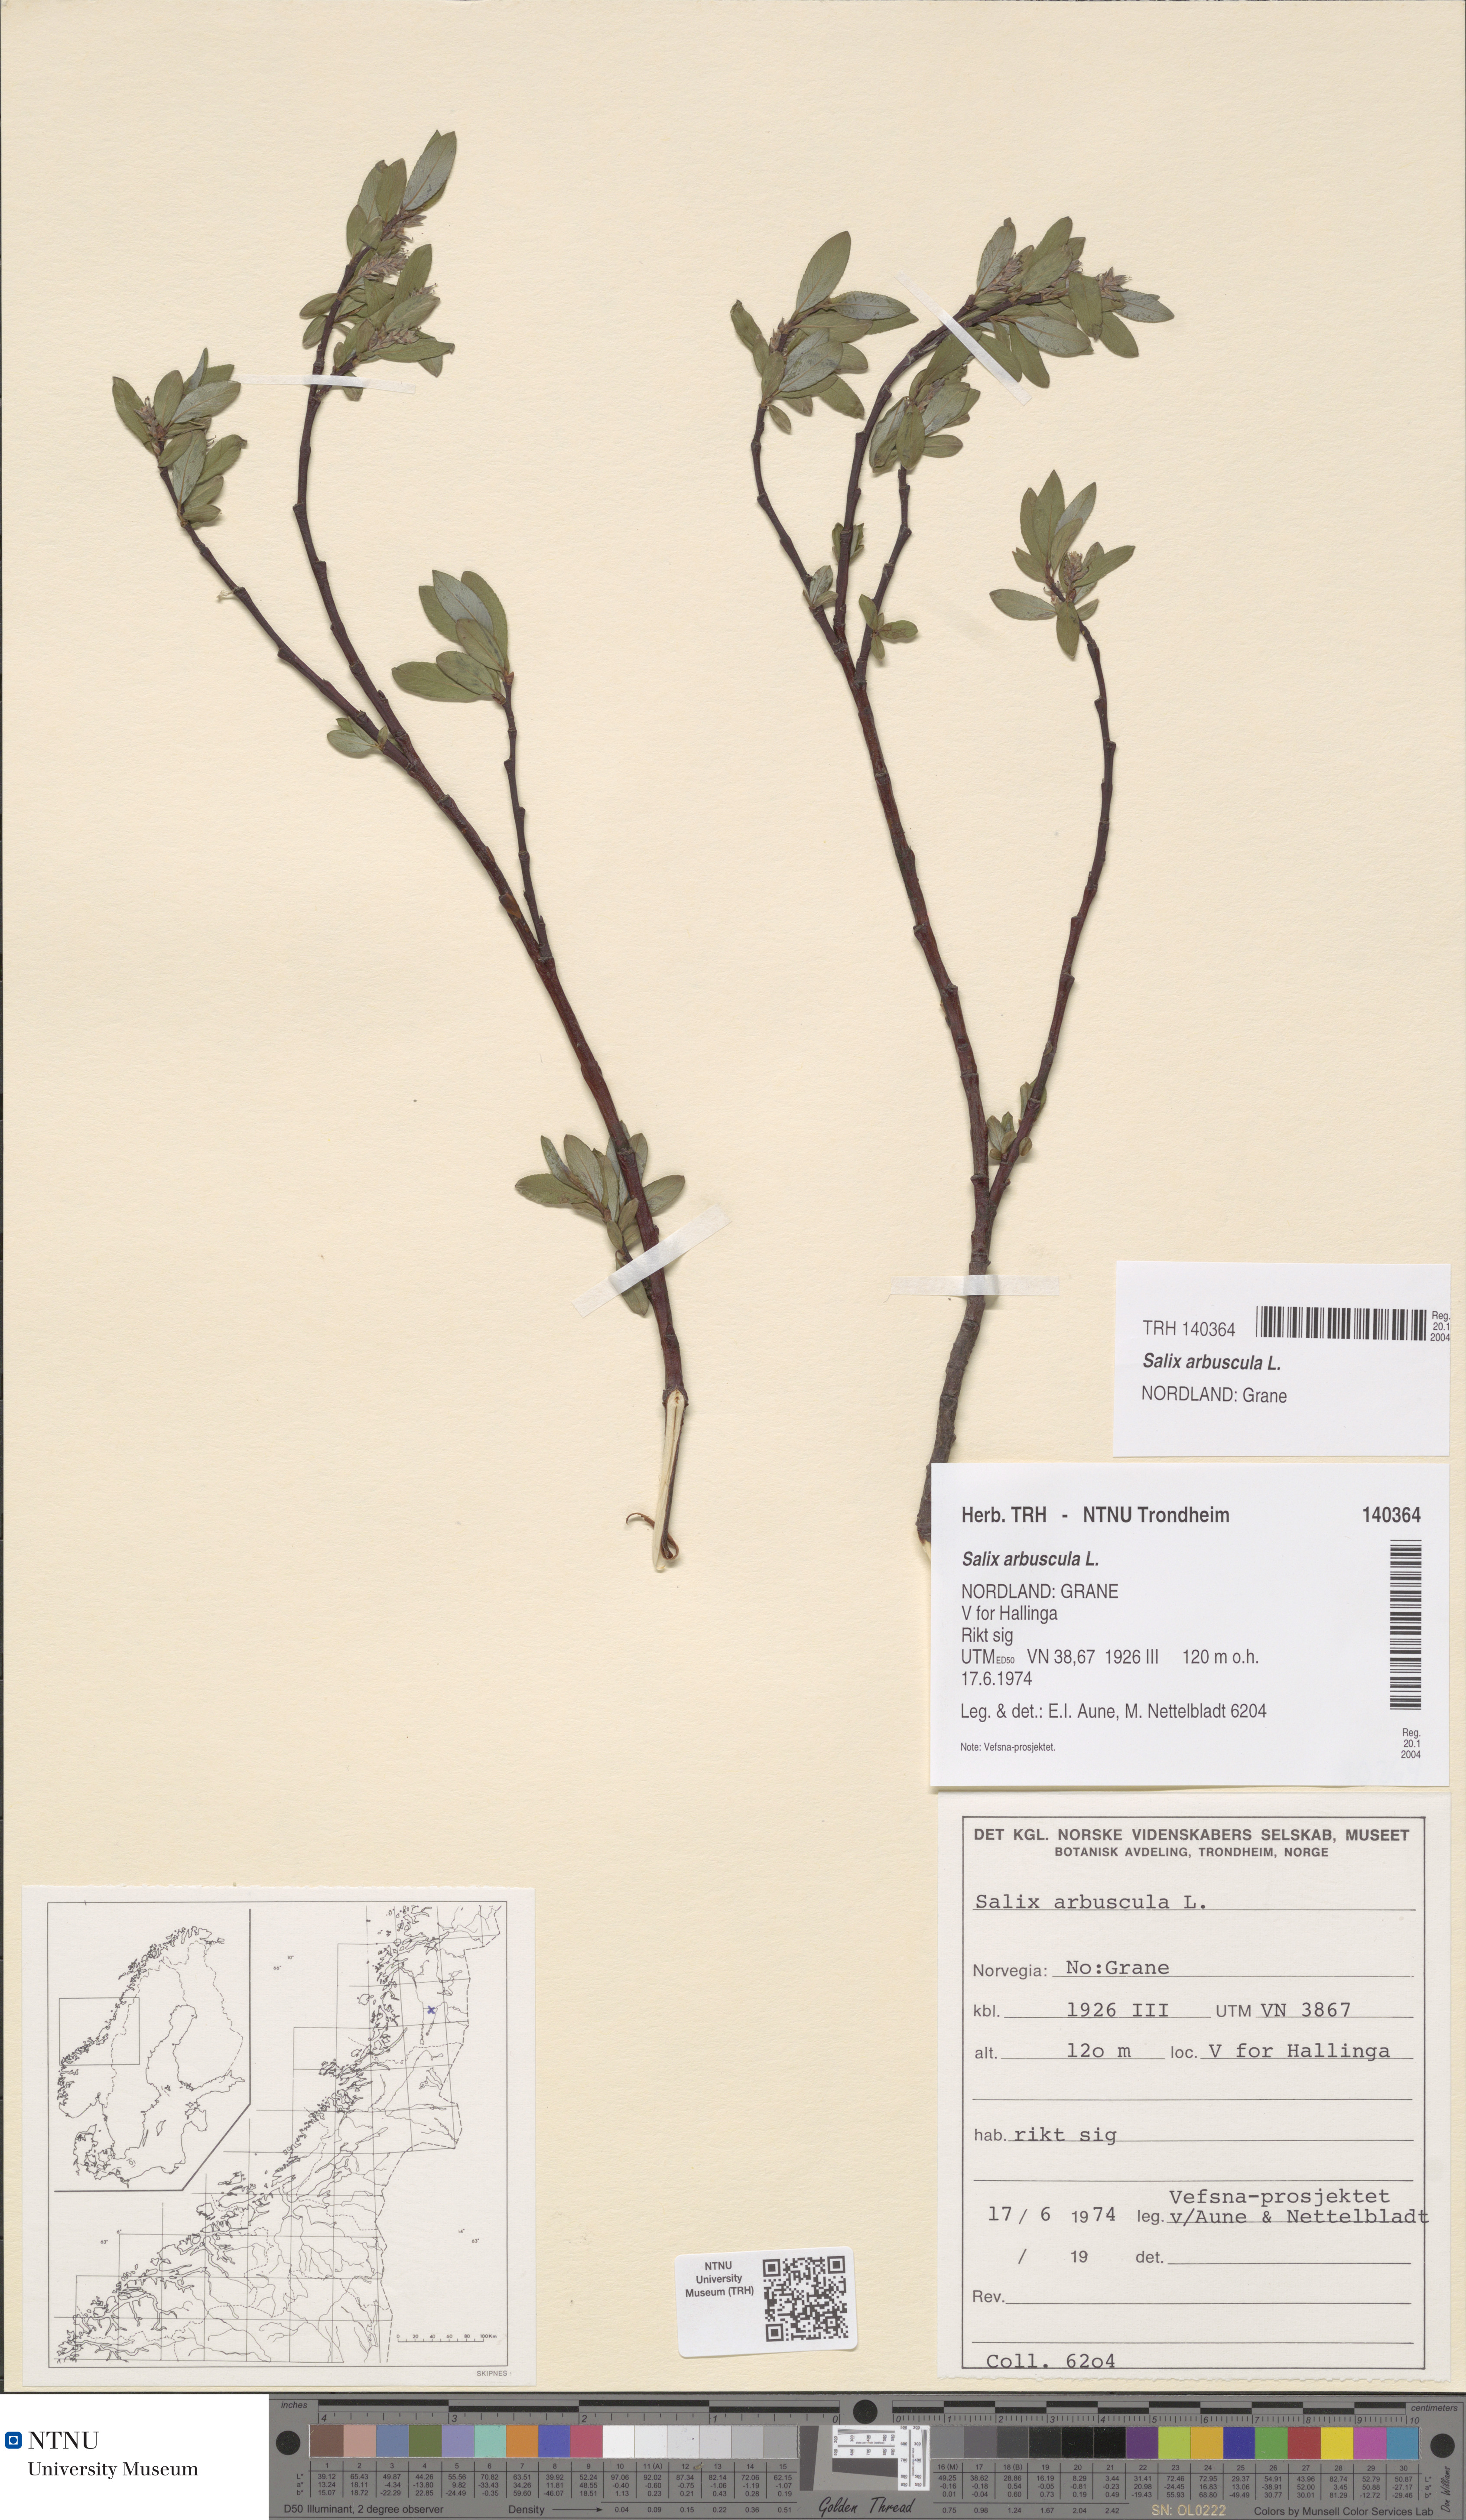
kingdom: Plantae
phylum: Tracheophyta
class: Magnoliopsida
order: Malpighiales
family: Salicaceae
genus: Salix
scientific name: Salix arbuscula
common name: Mountain willow
